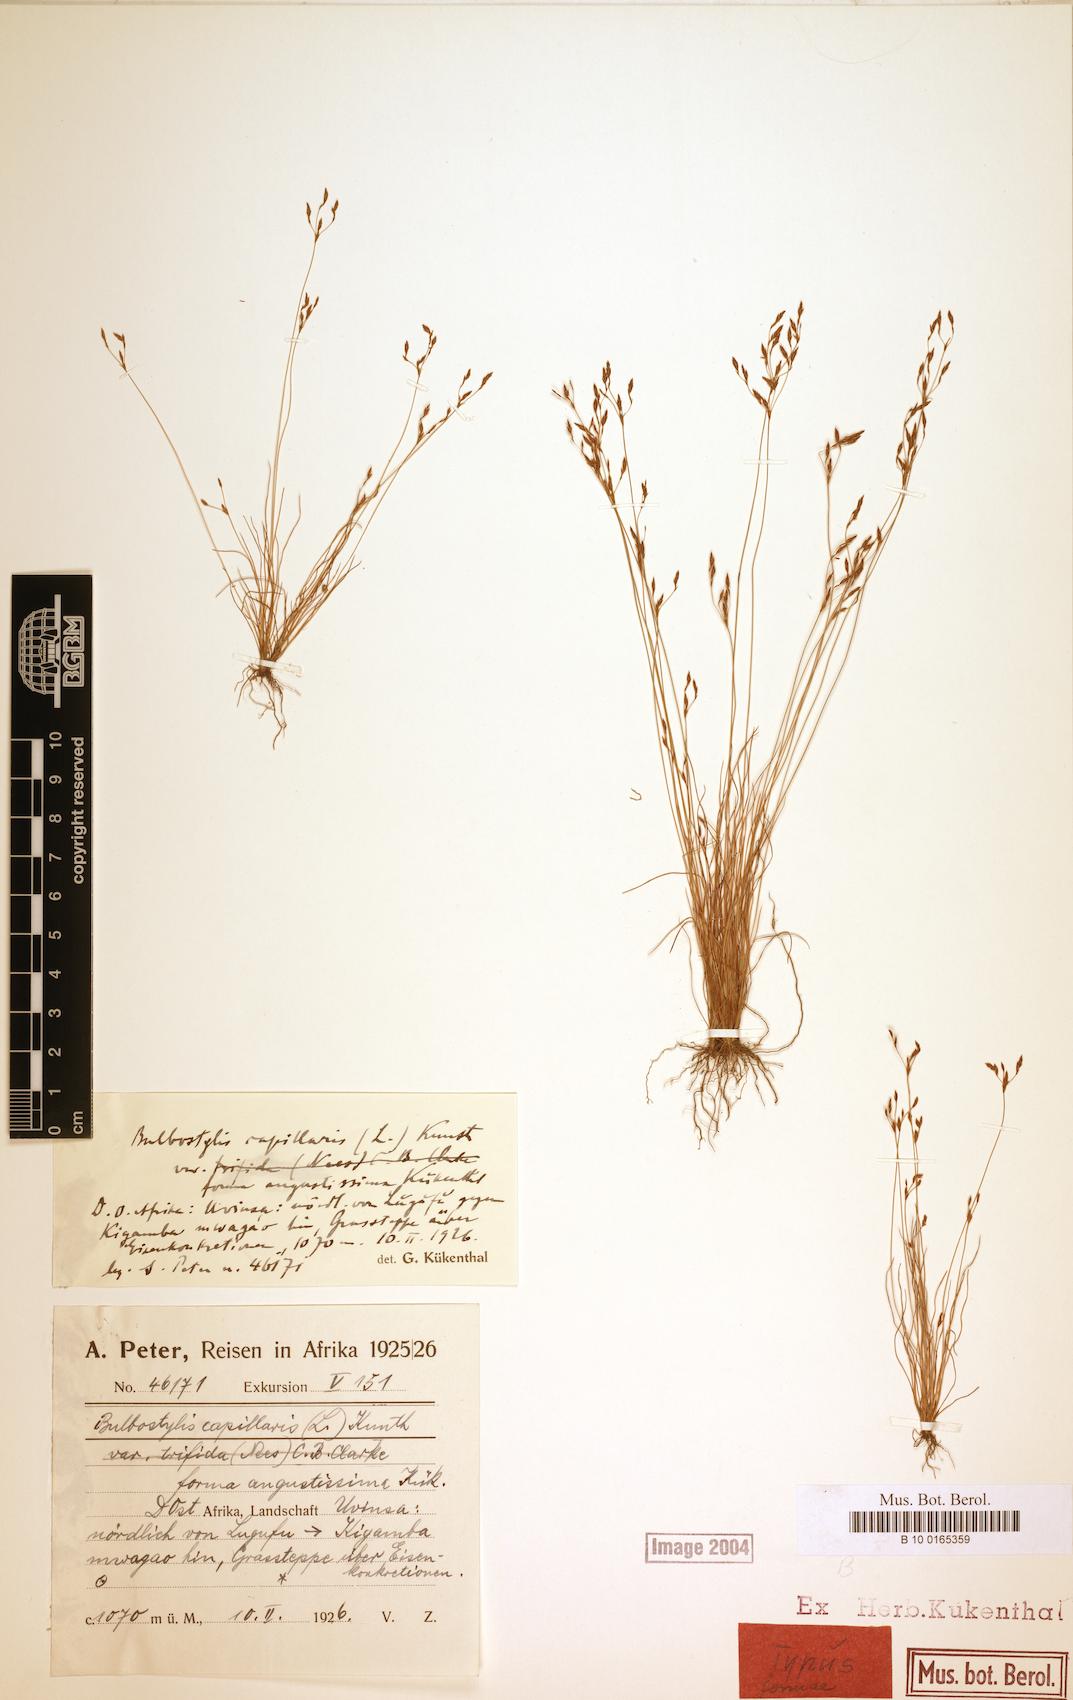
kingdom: Plantae
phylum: Tracheophyta
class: Liliopsida
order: Poales
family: Cyperaceae
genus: Bulbostylis
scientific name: Bulbostylis capillaris
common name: Densetuft hairsedge
